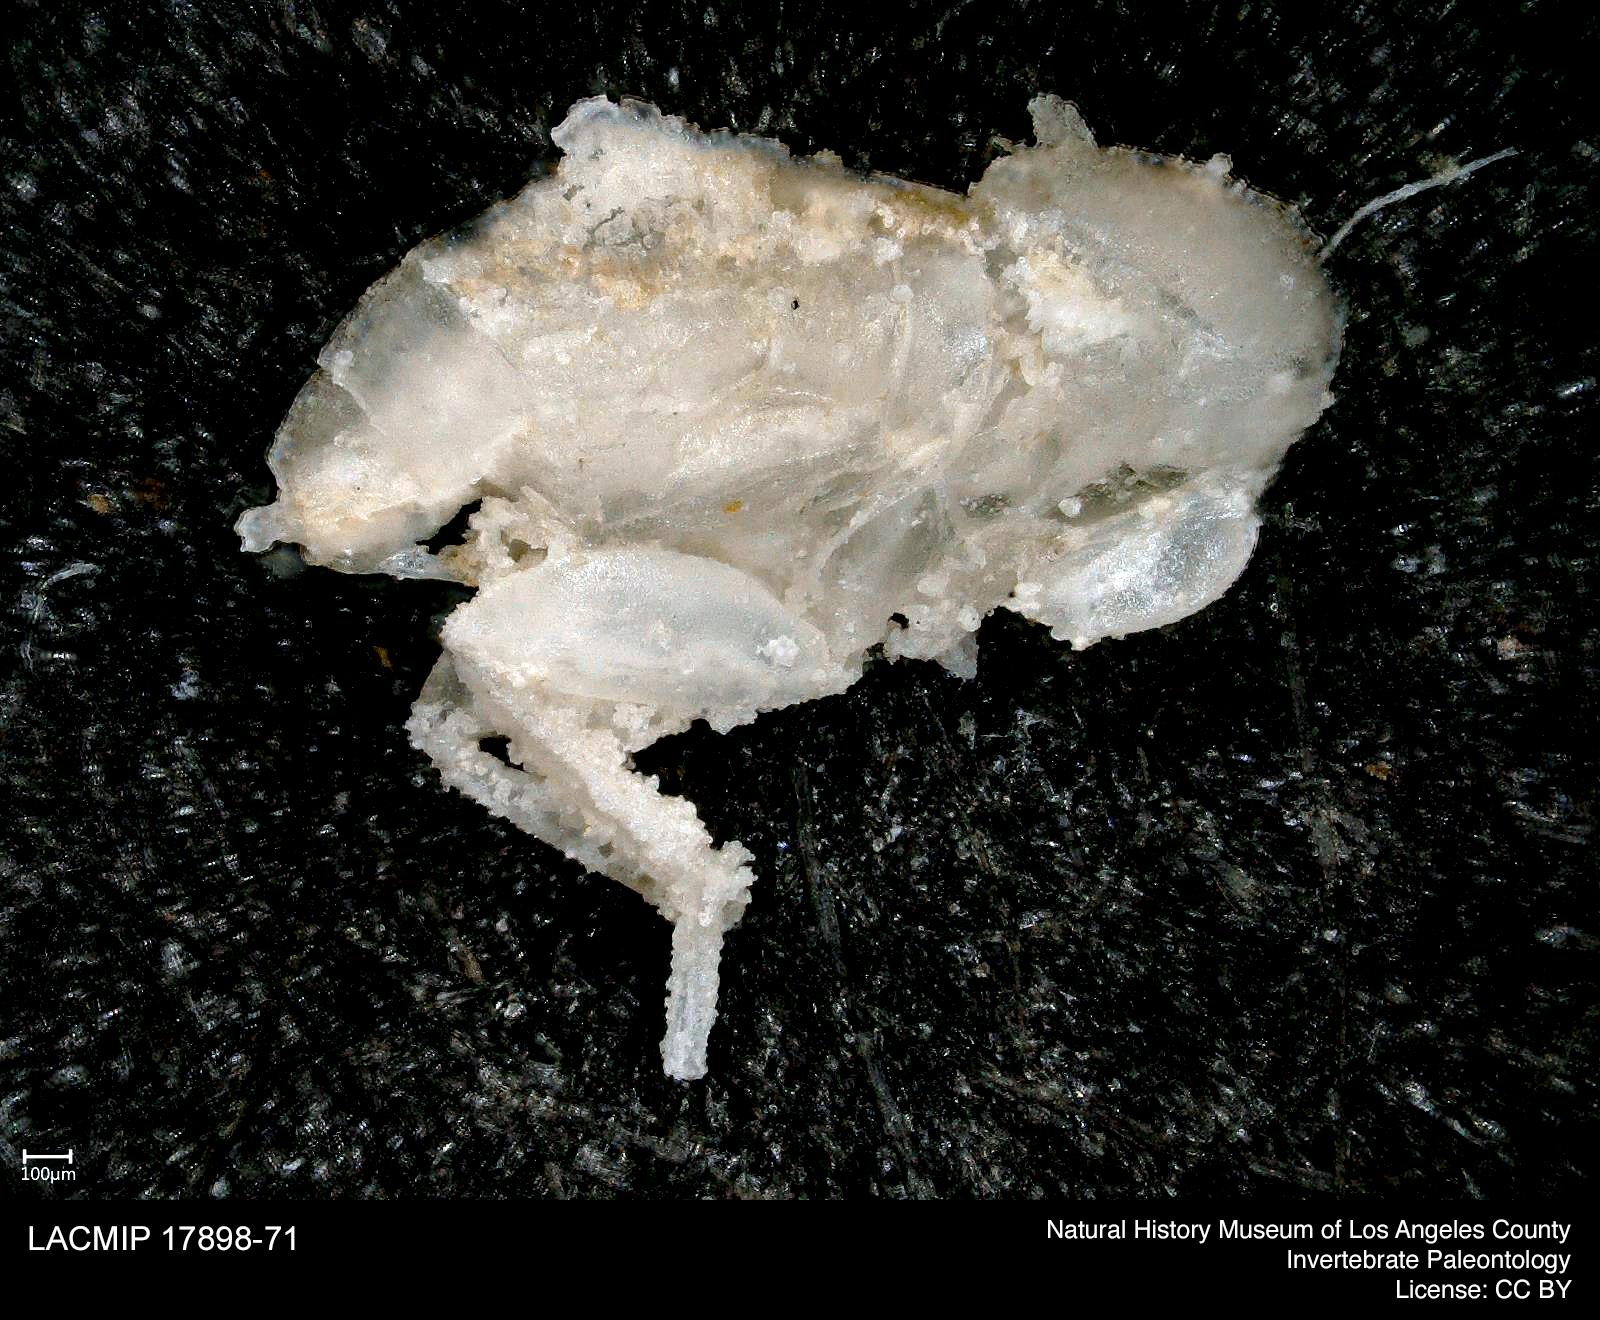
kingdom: Animalia
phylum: Arthropoda
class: Insecta
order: Orthoptera
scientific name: Orthoptera
